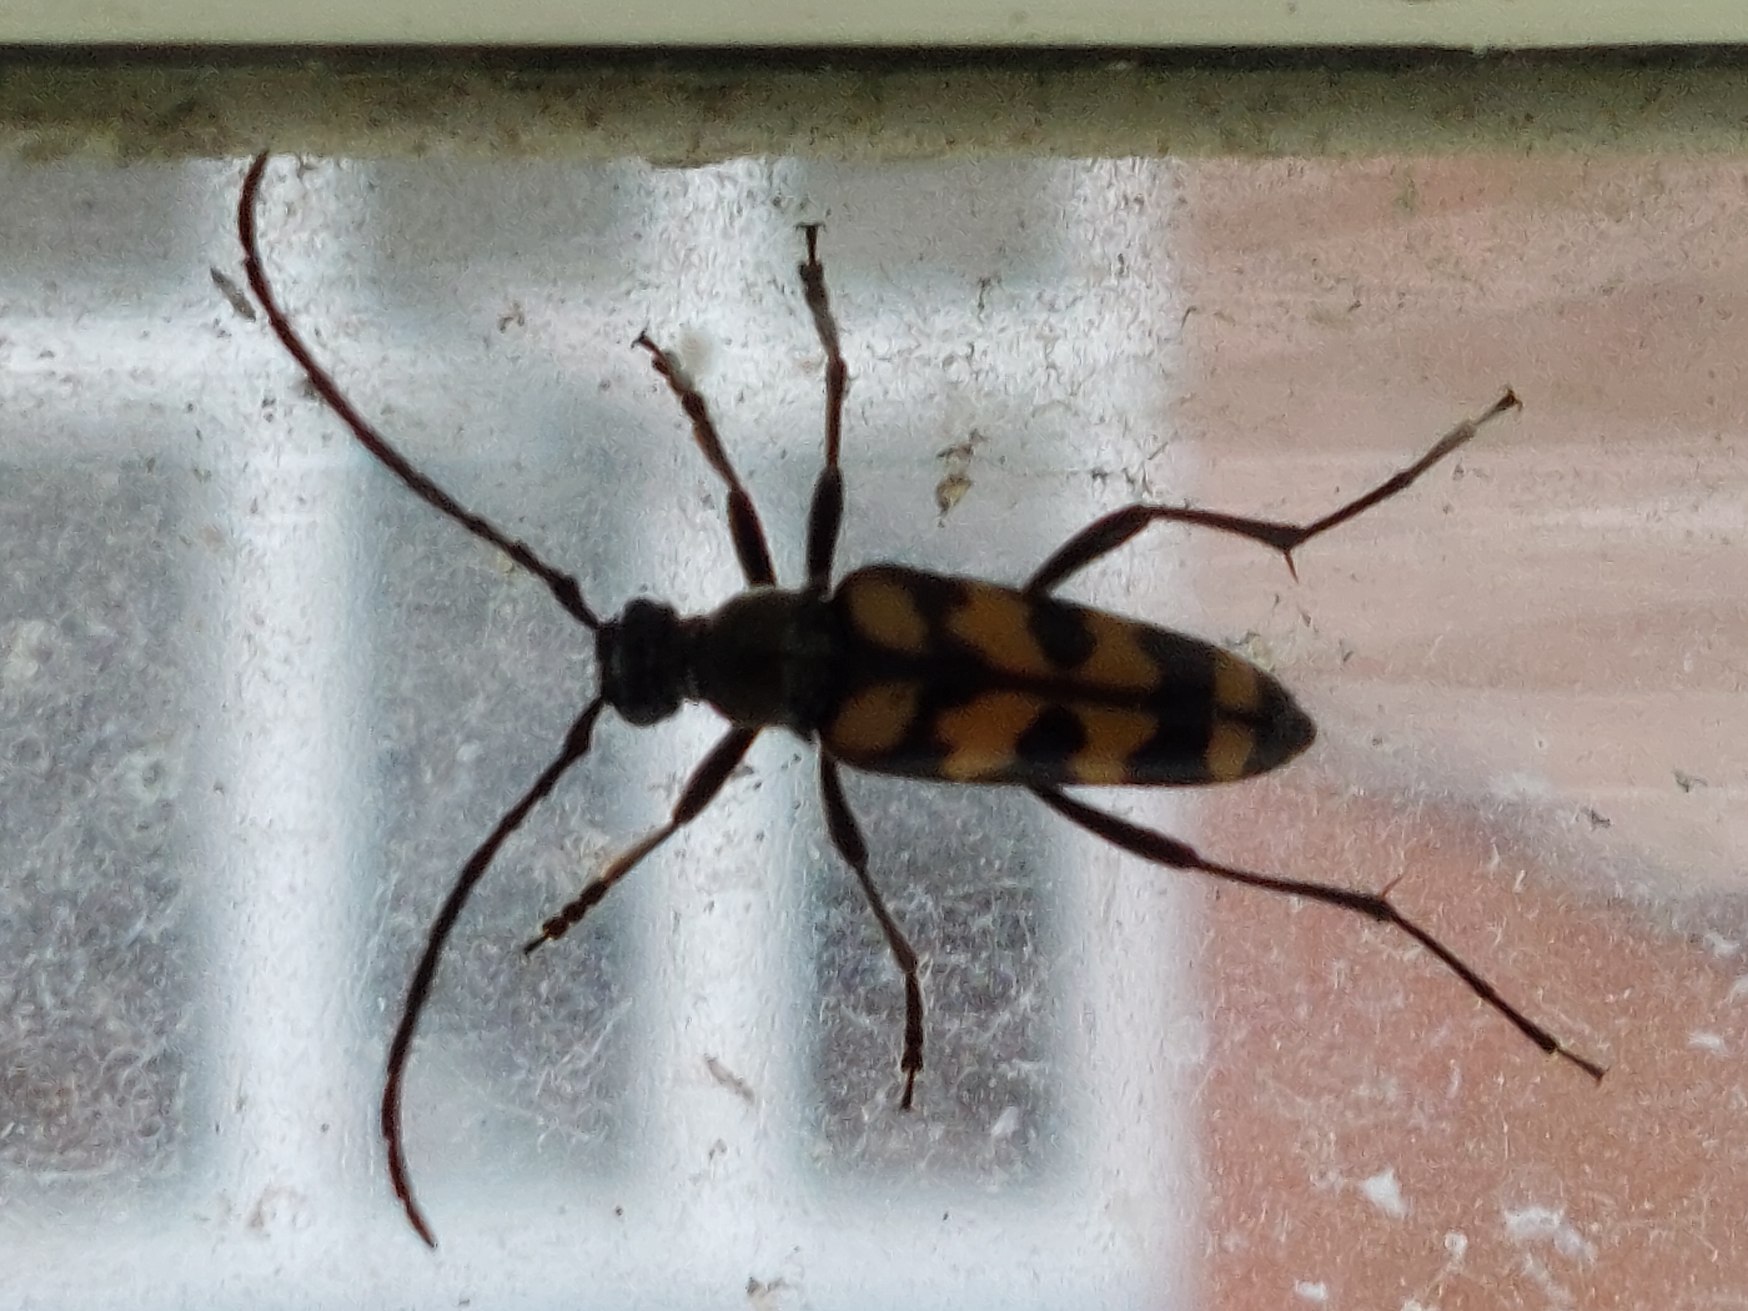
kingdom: Animalia
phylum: Arthropoda
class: Insecta
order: Coleoptera
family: Cerambycidae
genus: Leptura
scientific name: Leptura quadrifasciata
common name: Firebåndet blomsterbuk
